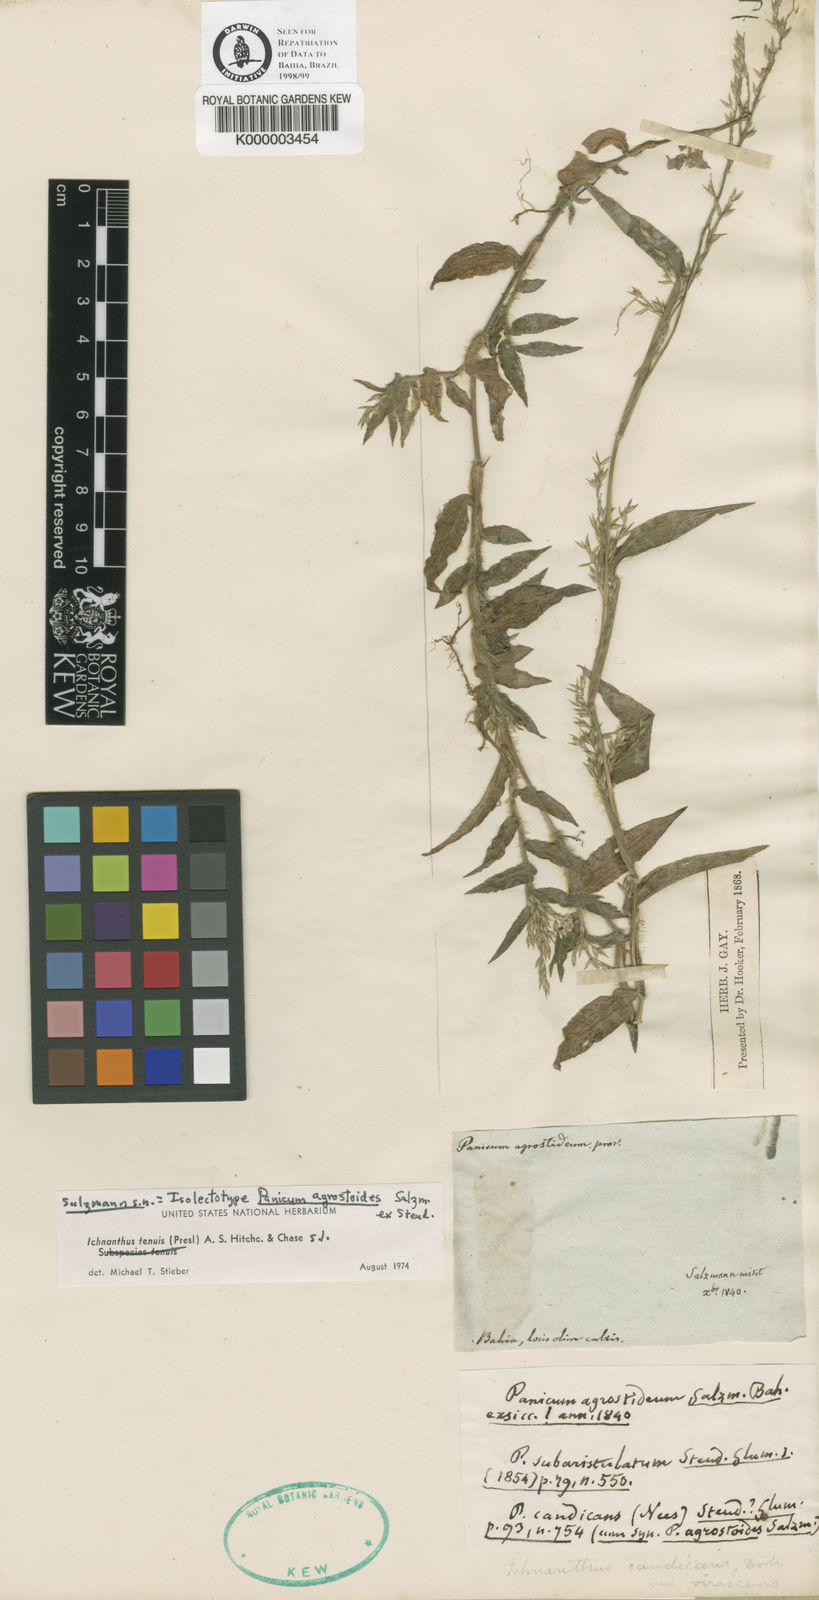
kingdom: Plantae
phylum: Tracheophyta
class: Liliopsida
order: Poales
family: Poaceae
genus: Ichnanthus
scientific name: Ichnanthus tenuis
